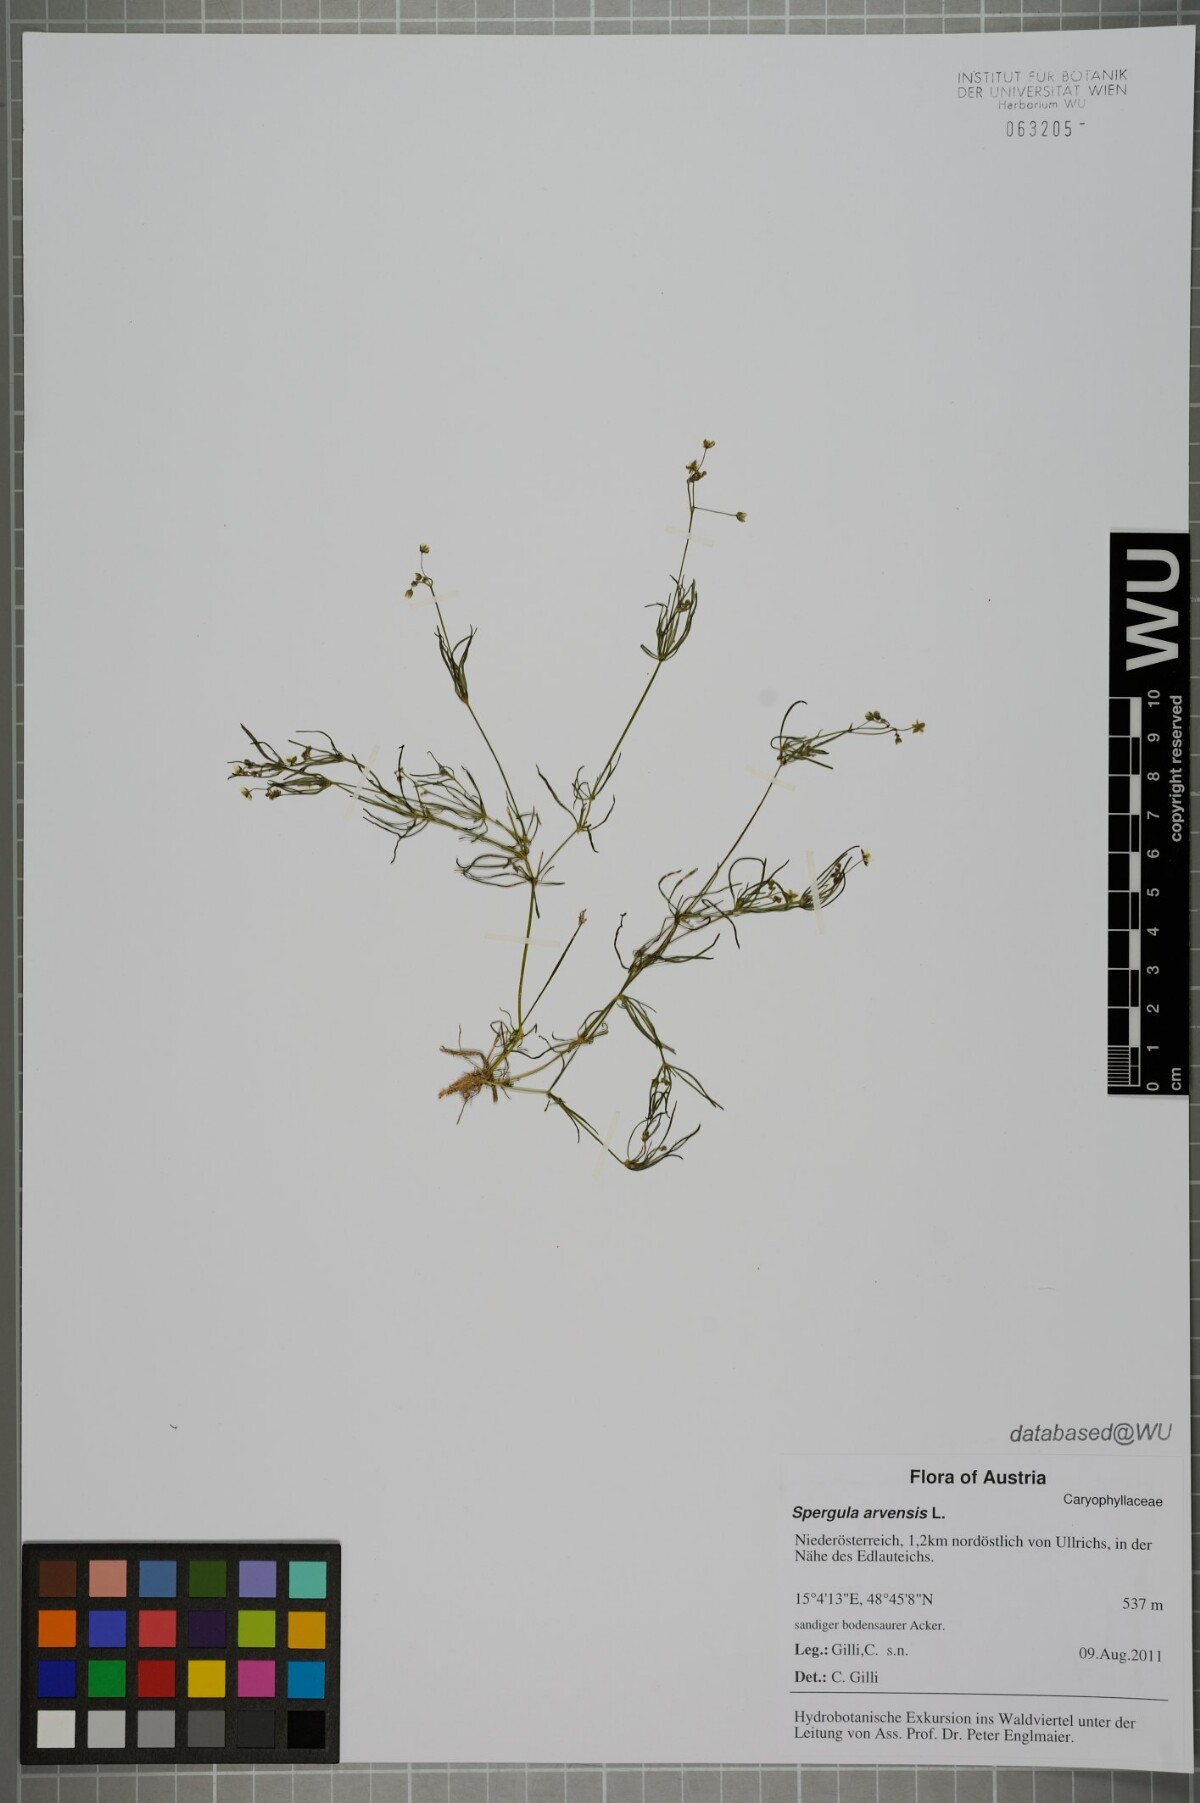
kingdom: Plantae
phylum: Tracheophyta
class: Magnoliopsida
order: Caryophyllales
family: Caryophyllaceae
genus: Spergula
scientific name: Spergula arvensis
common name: Corn spurrey
